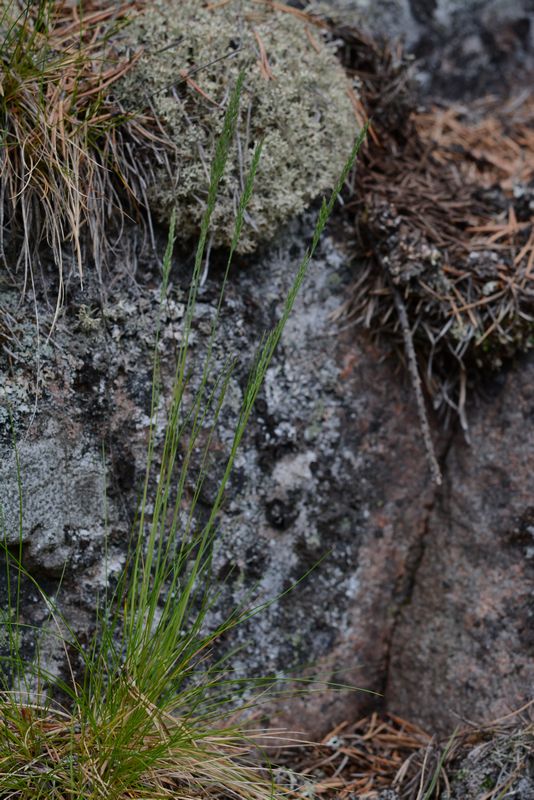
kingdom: Plantae
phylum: Tracheophyta
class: Liliopsida
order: Poales
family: Poaceae
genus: Festuca
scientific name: Festuca ovina
